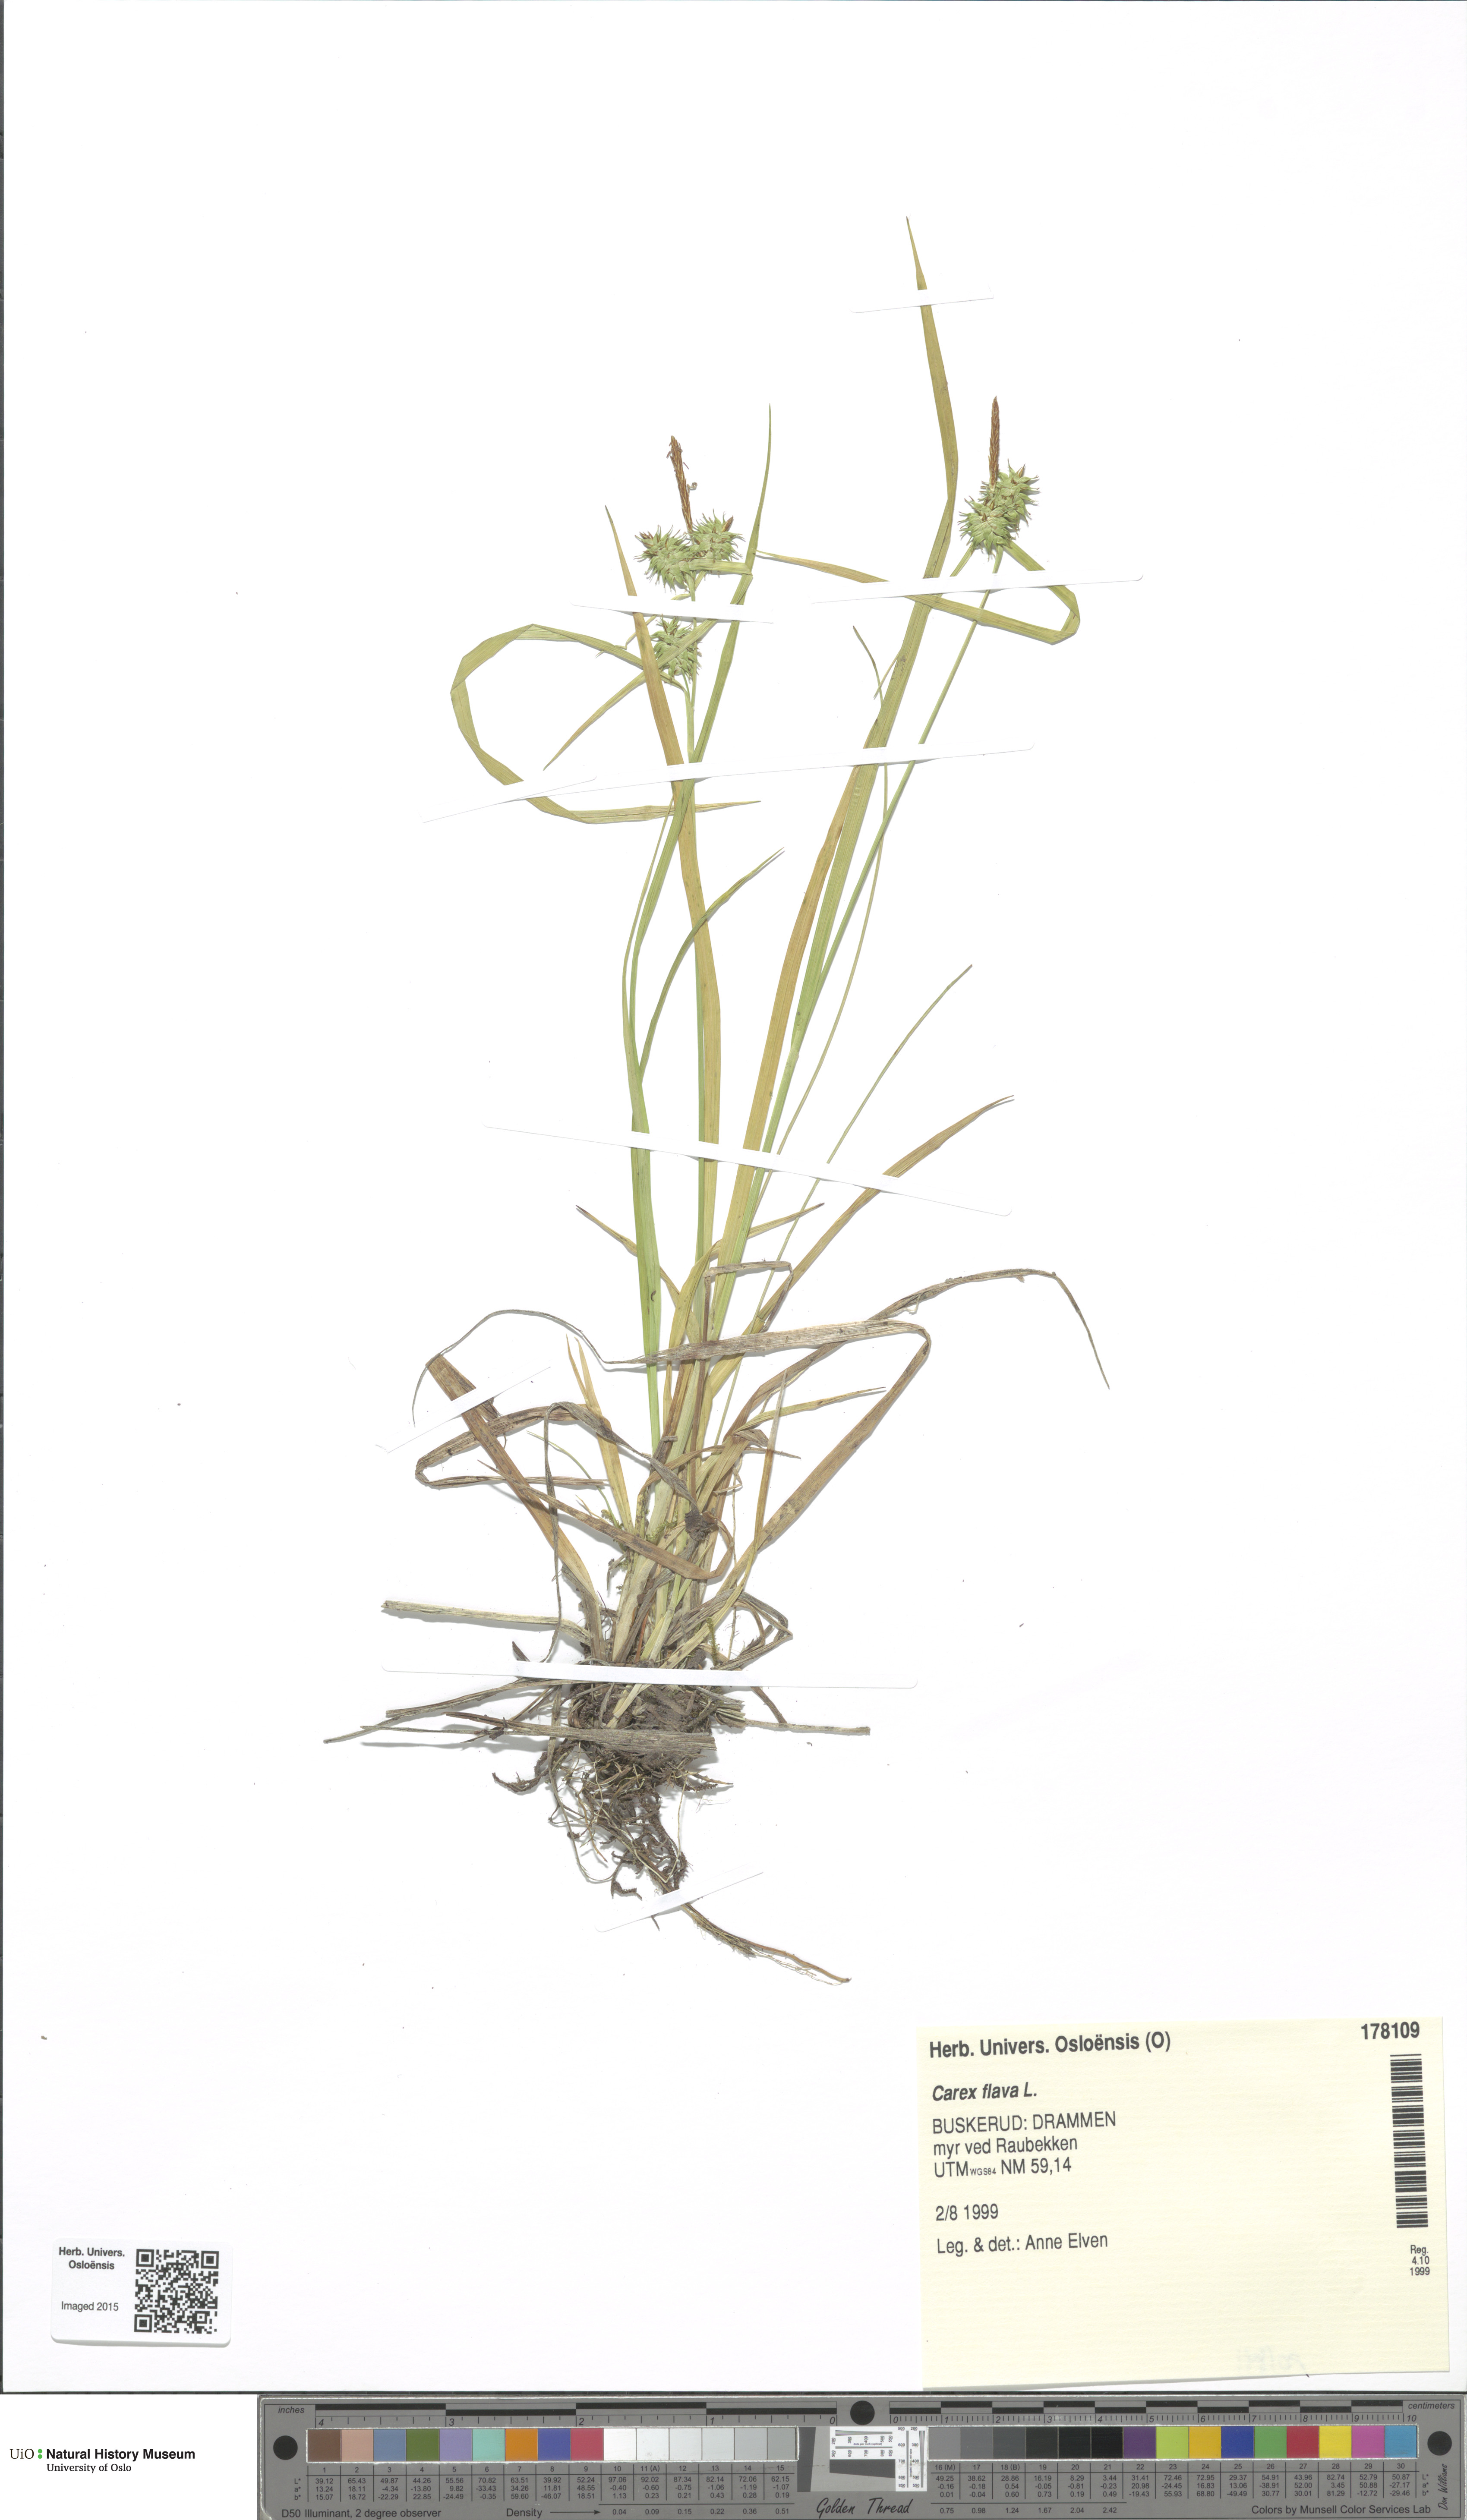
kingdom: Plantae
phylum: Tracheophyta
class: Liliopsida
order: Poales
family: Cyperaceae
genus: Carex
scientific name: Carex flava
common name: Large yellow-sedge
